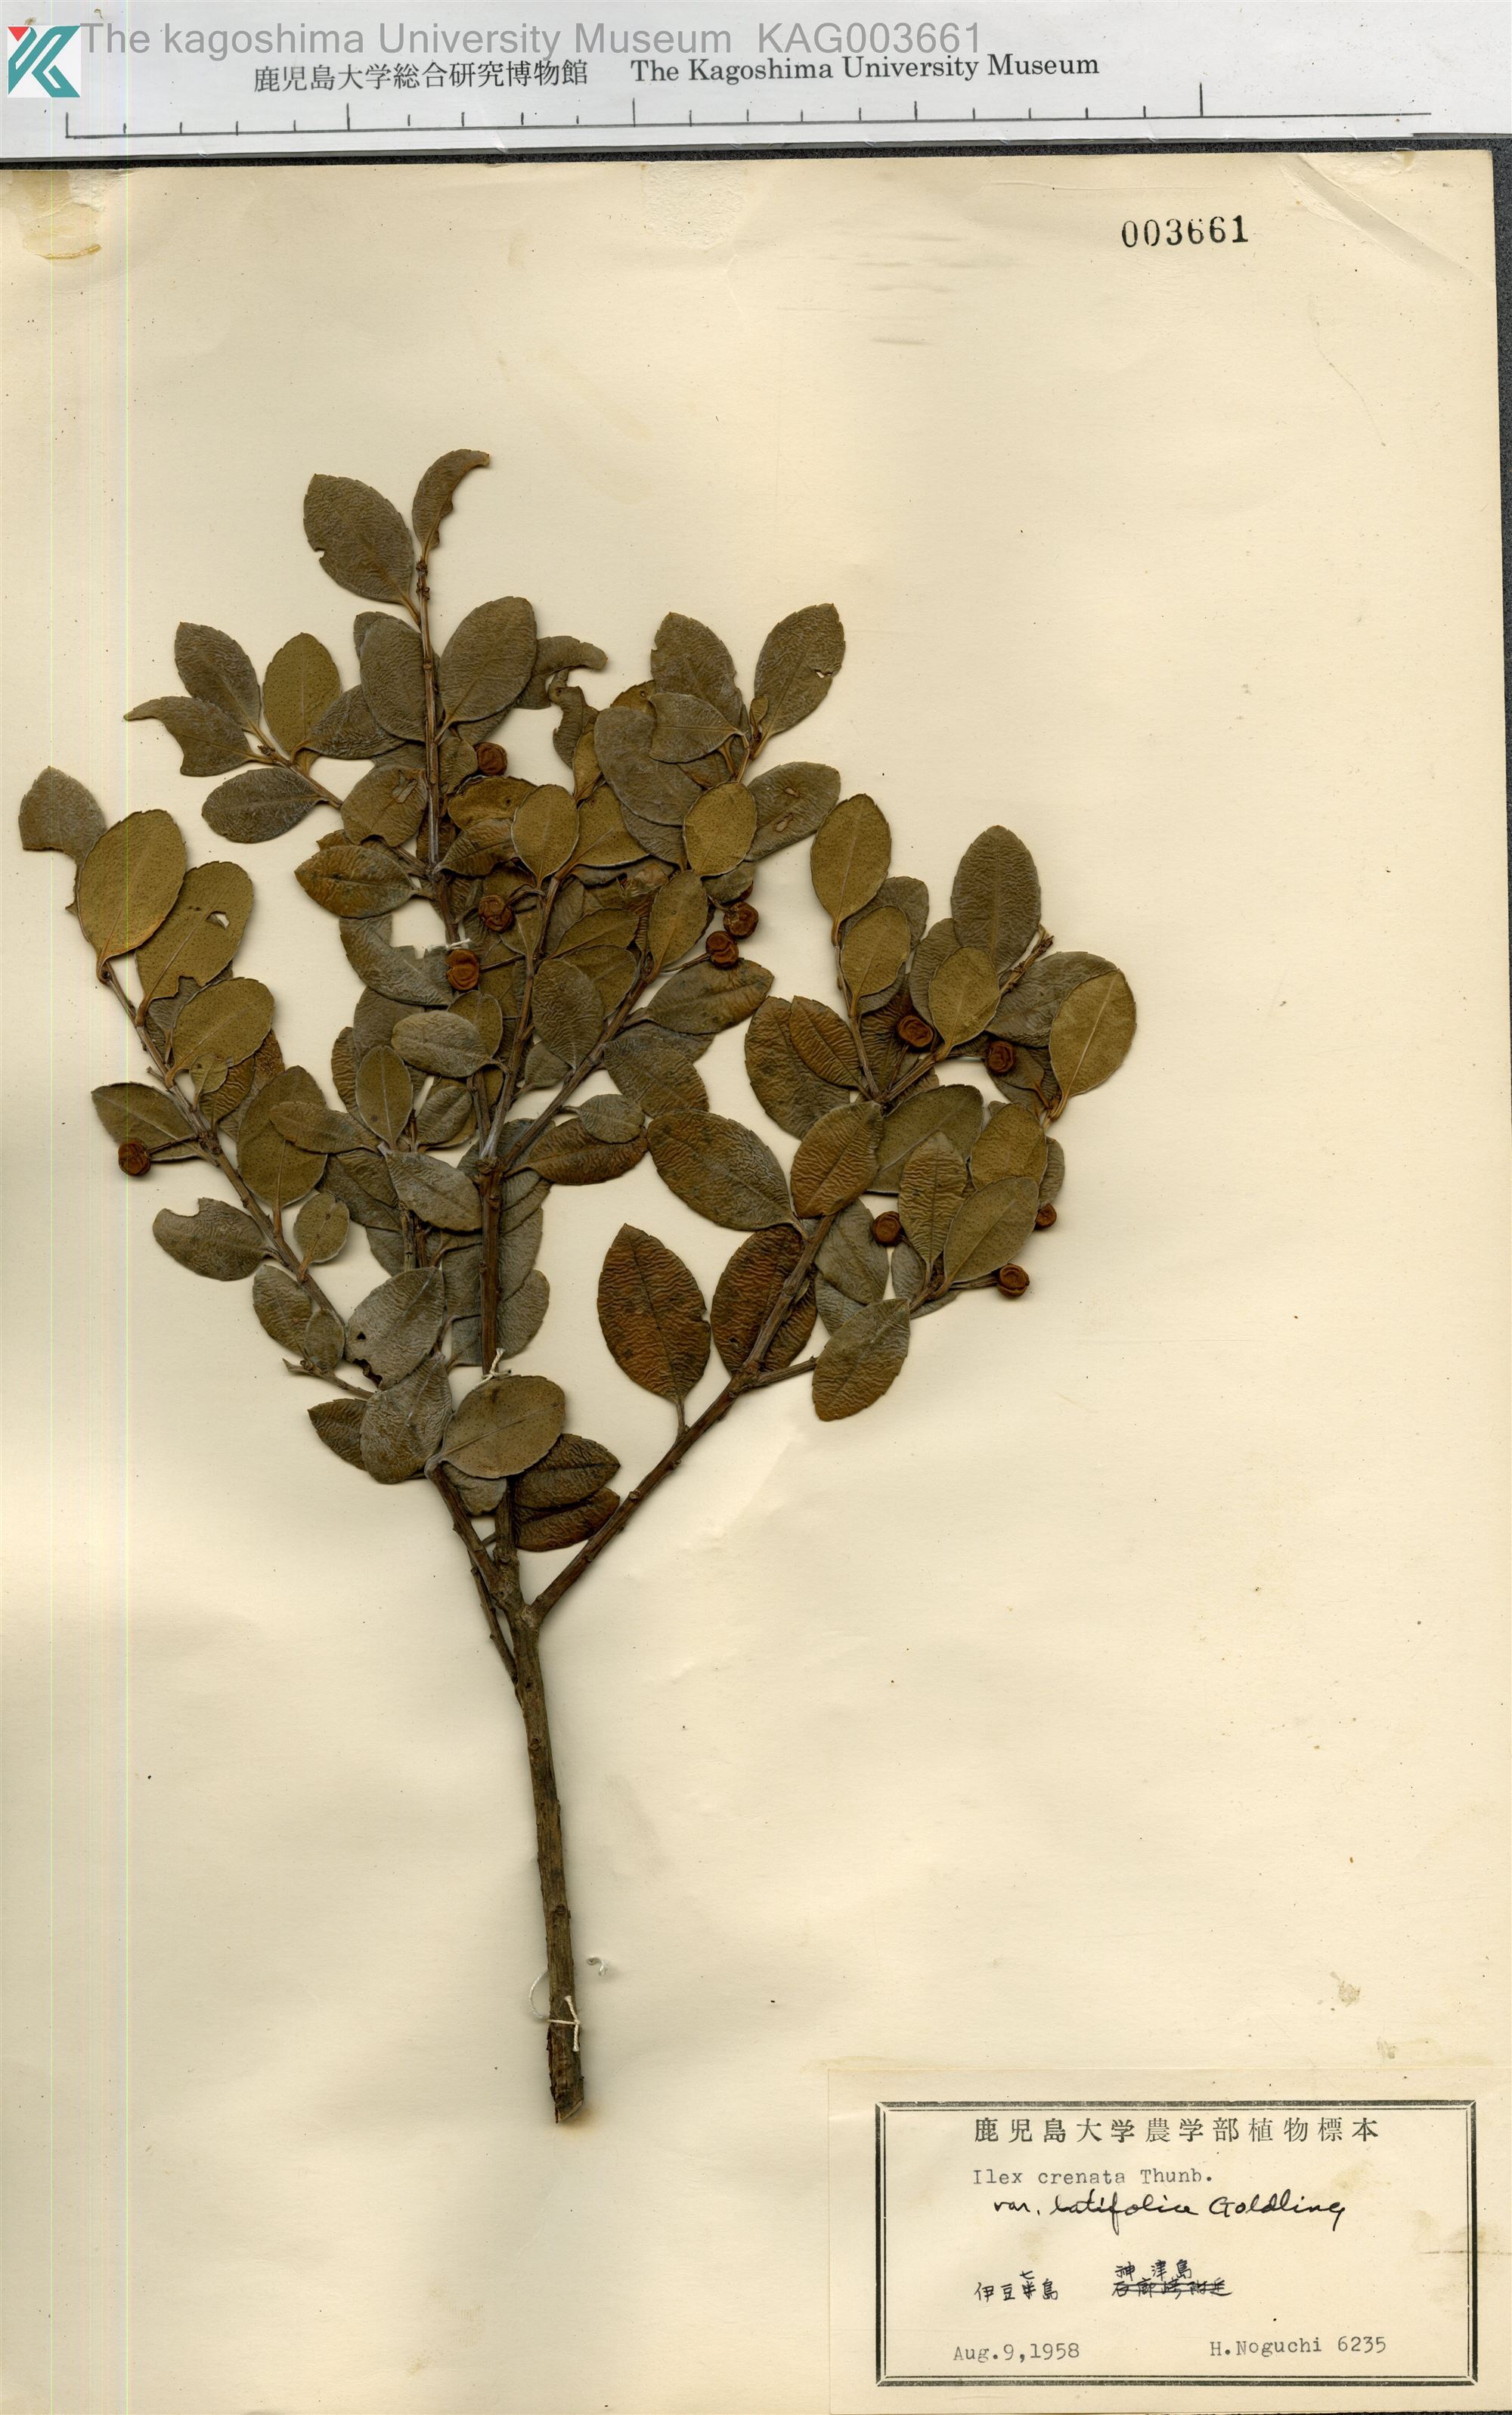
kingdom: Plantae
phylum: Tracheophyta
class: Magnoliopsida
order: Aquifoliales
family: Aquifoliaceae
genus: Ilex
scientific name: Ilex crenata
